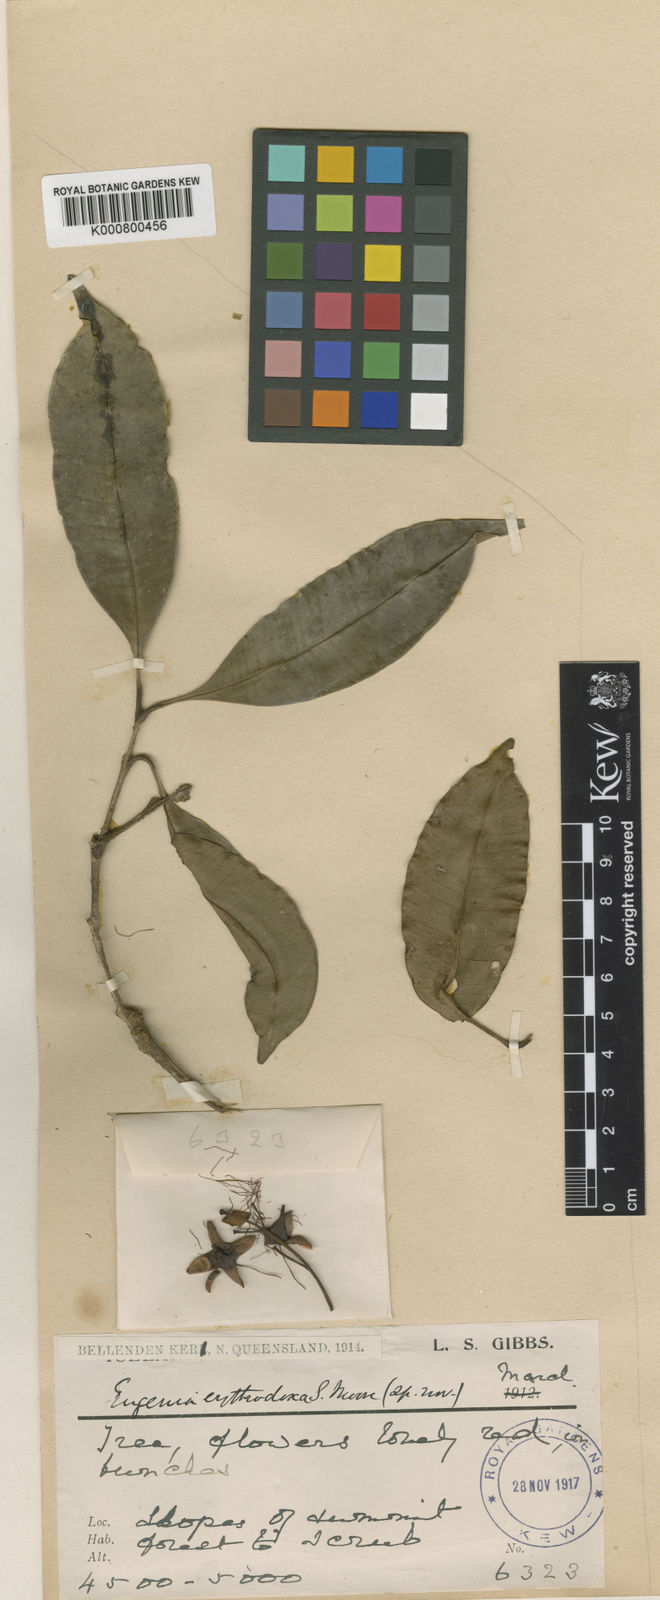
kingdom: Plantae
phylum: Tracheophyta
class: Magnoliopsida
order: Myrtales
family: Myrtaceae
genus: Syzygium
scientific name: Syzygium erythrodoxum
